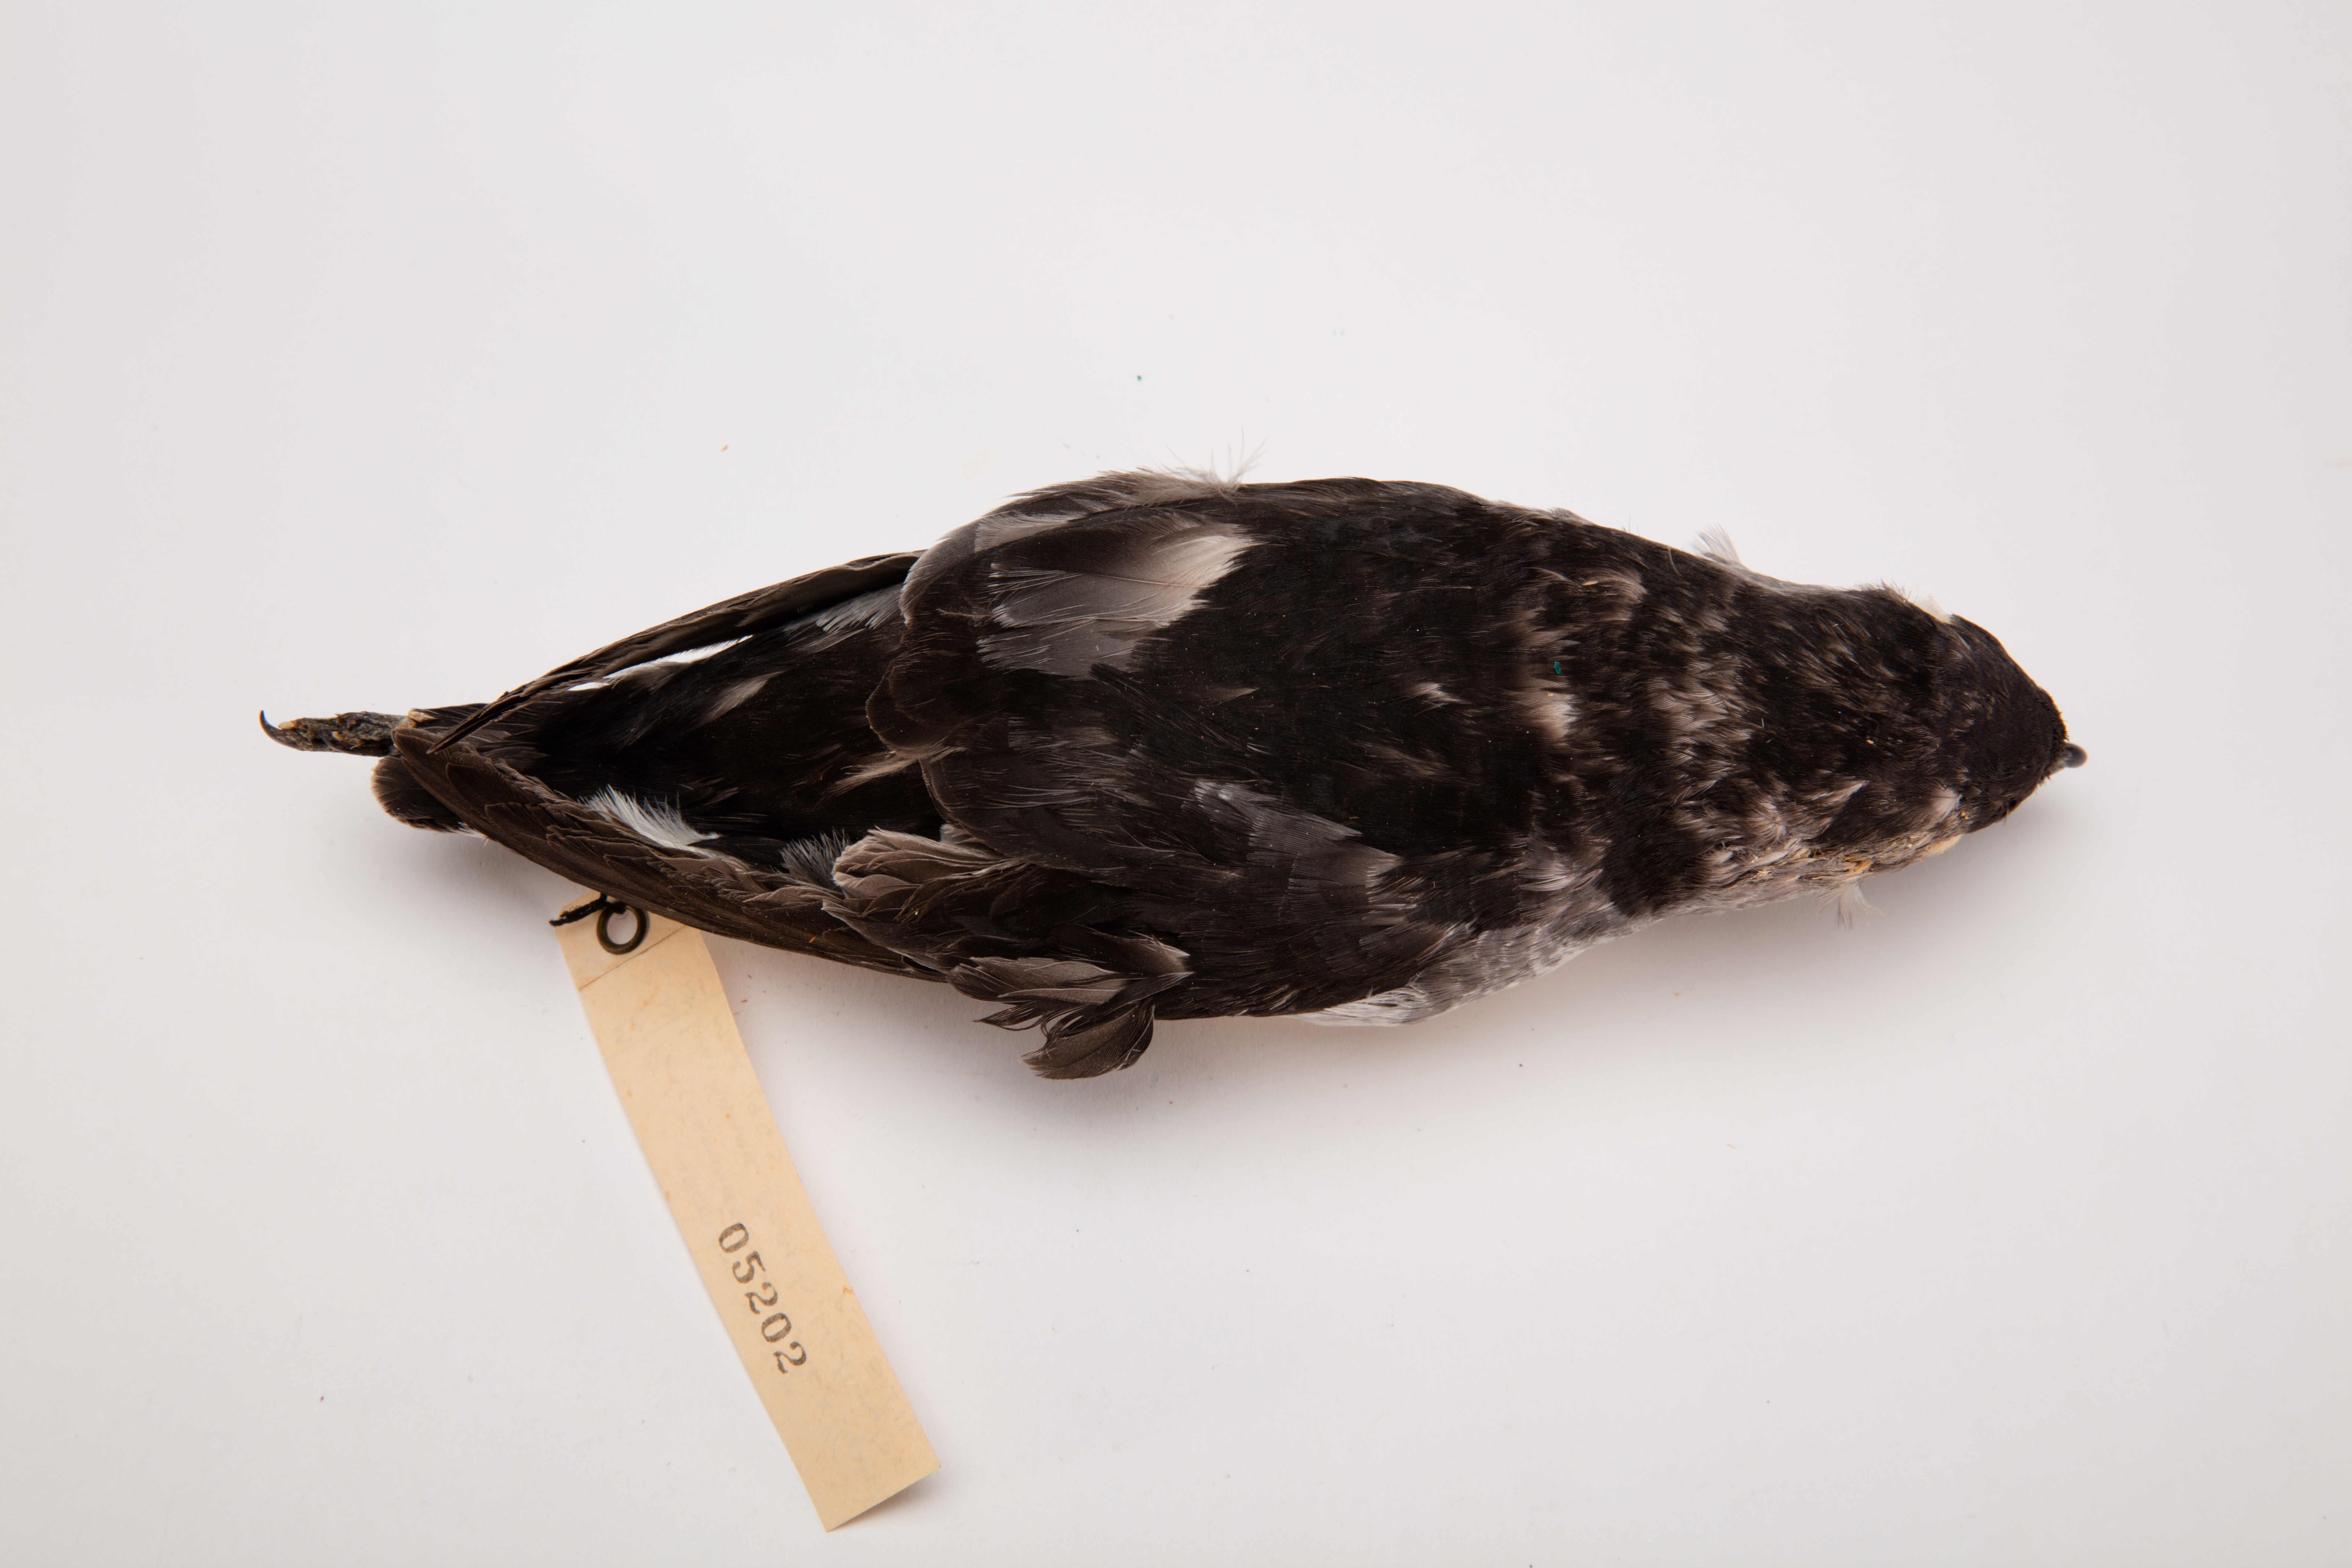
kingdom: Animalia
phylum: Chordata
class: Aves
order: Procellariiformes
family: Pelecanoididae
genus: Pelecanoides
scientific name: Pelecanoides urinatrix
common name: Common diving-petrel
